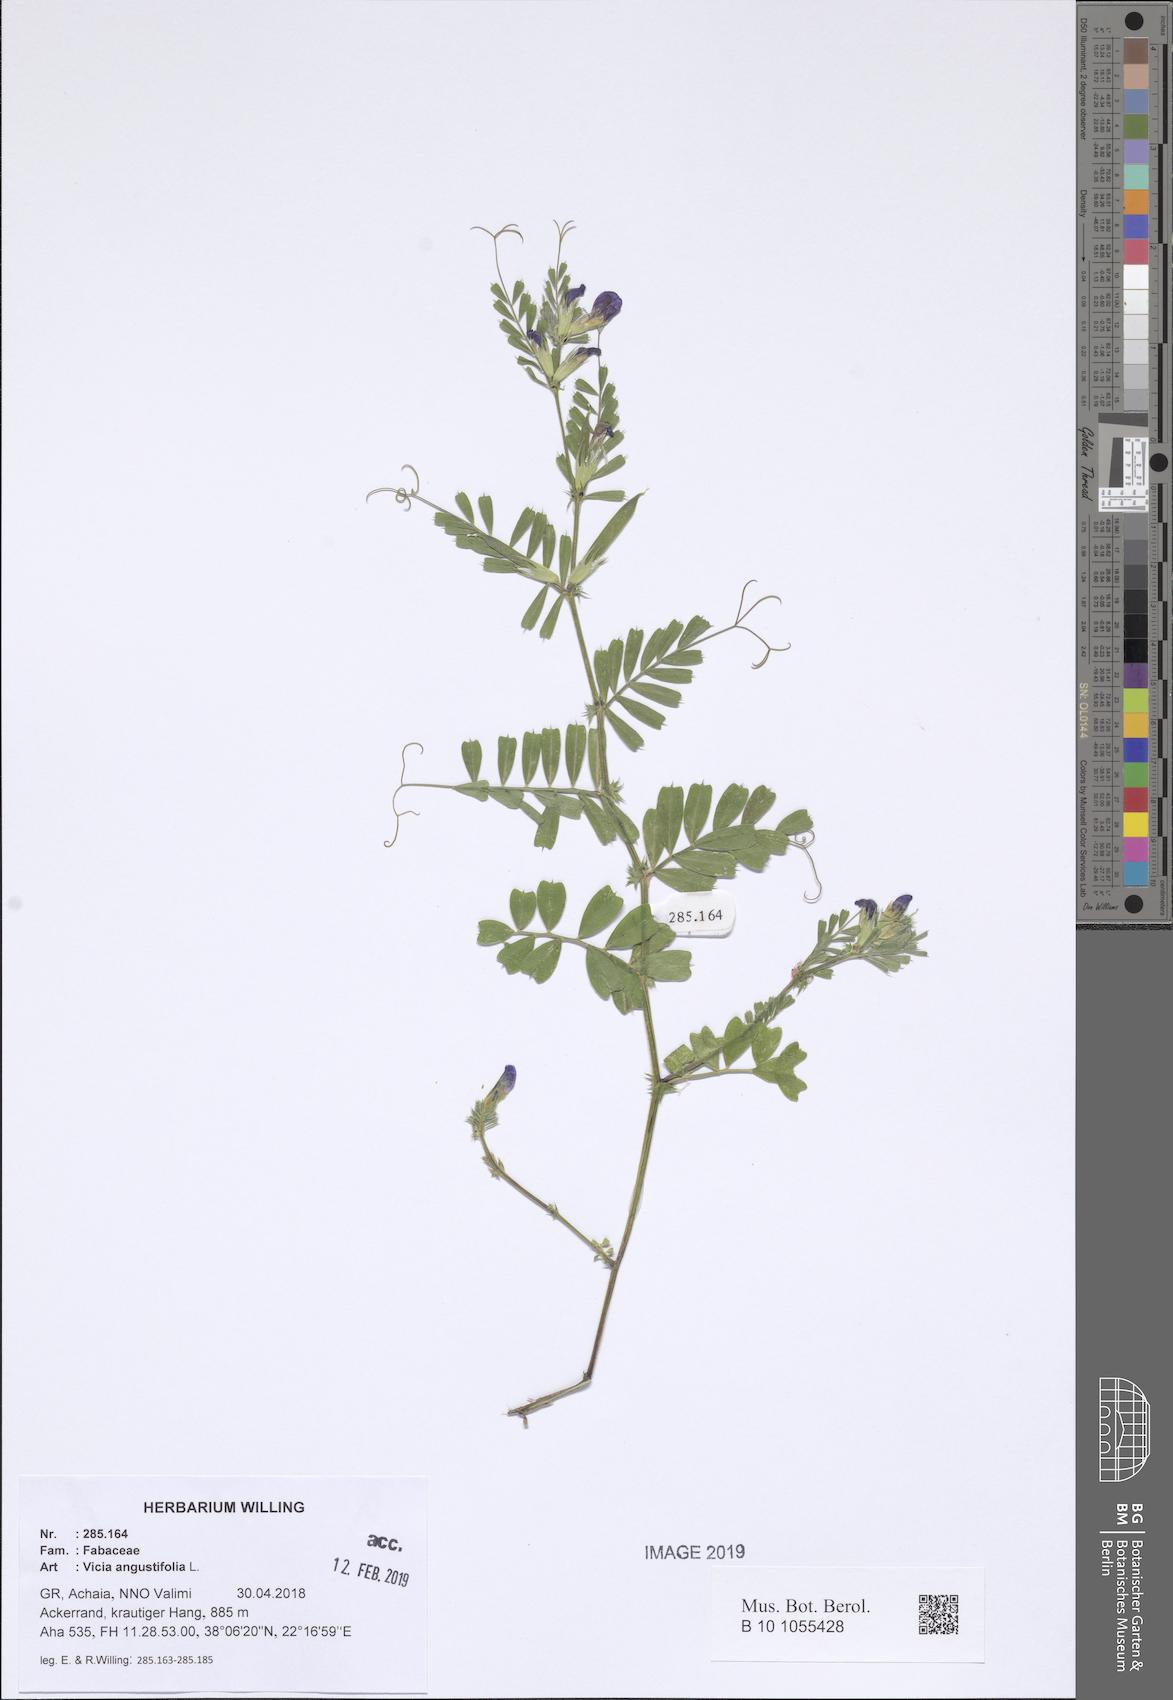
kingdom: Plantae
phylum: Tracheophyta
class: Magnoliopsida
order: Fabales
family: Fabaceae
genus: Vicia
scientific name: Vicia sativa
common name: Garden vetch
